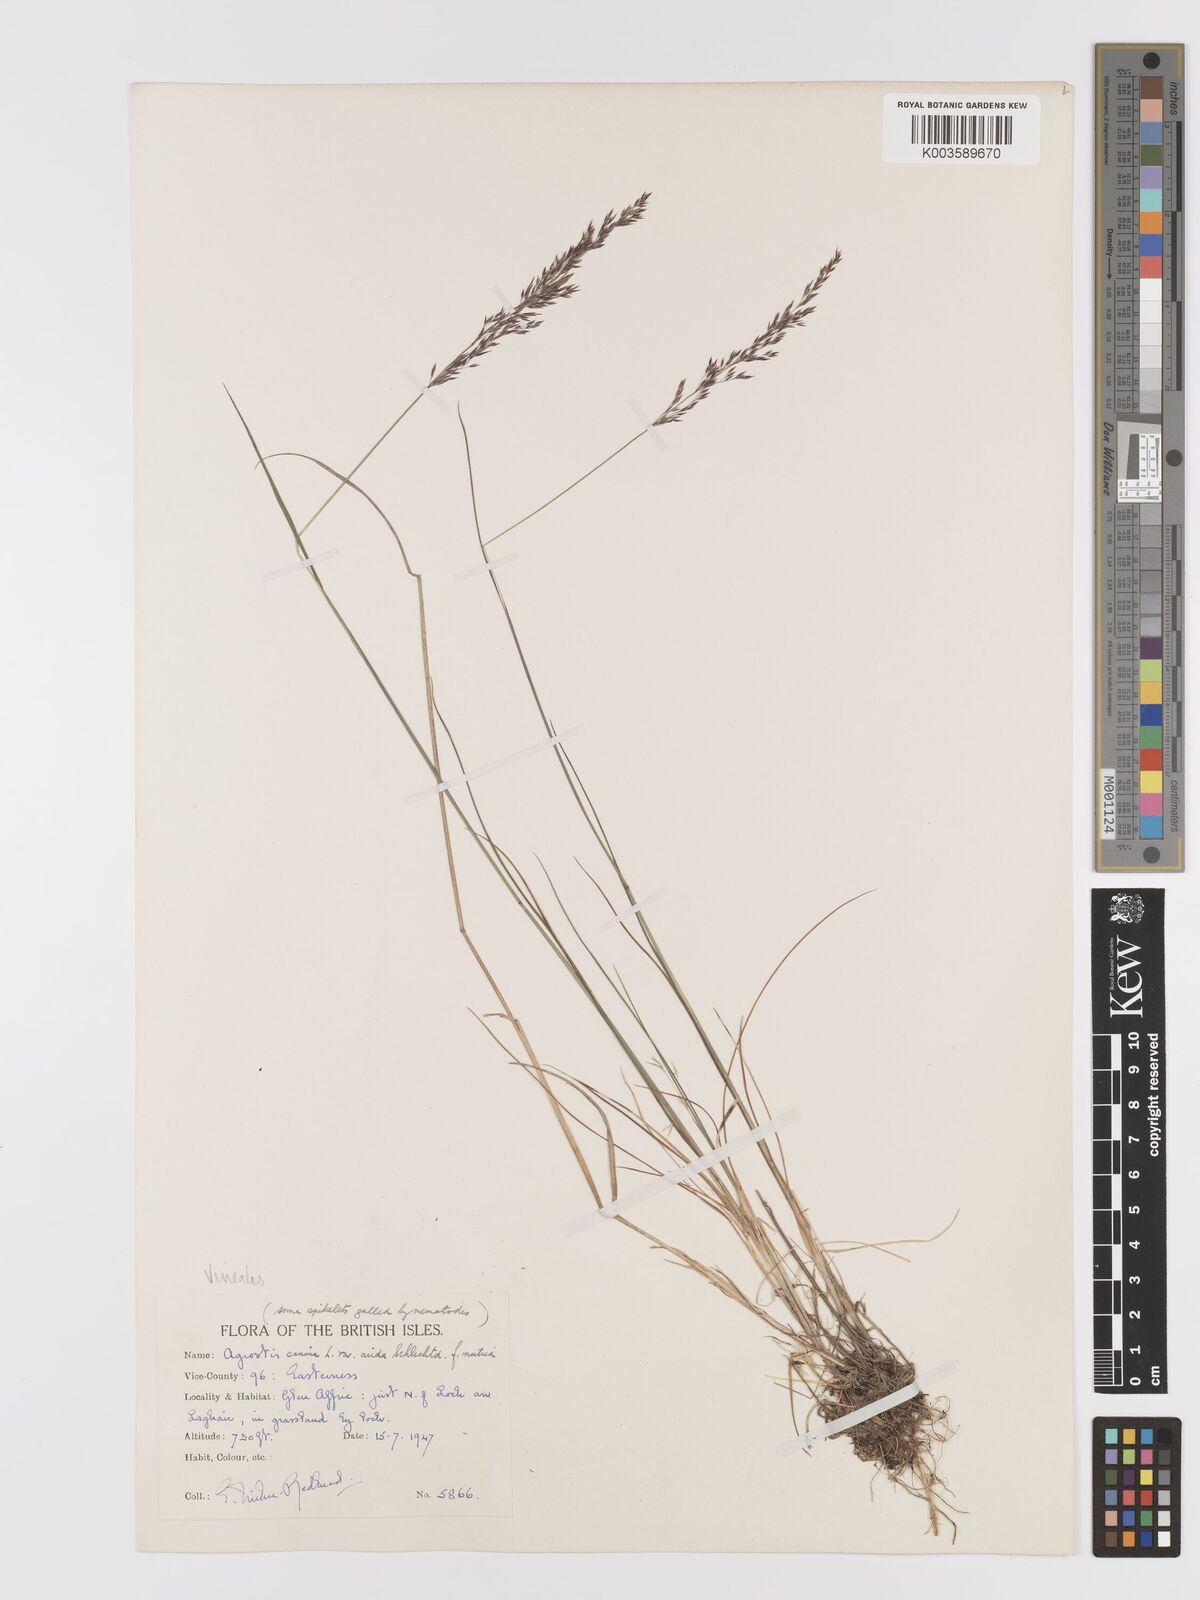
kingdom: Plantae
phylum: Tracheophyta
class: Liliopsida
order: Poales
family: Poaceae
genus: Agrostis
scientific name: Agrostis
